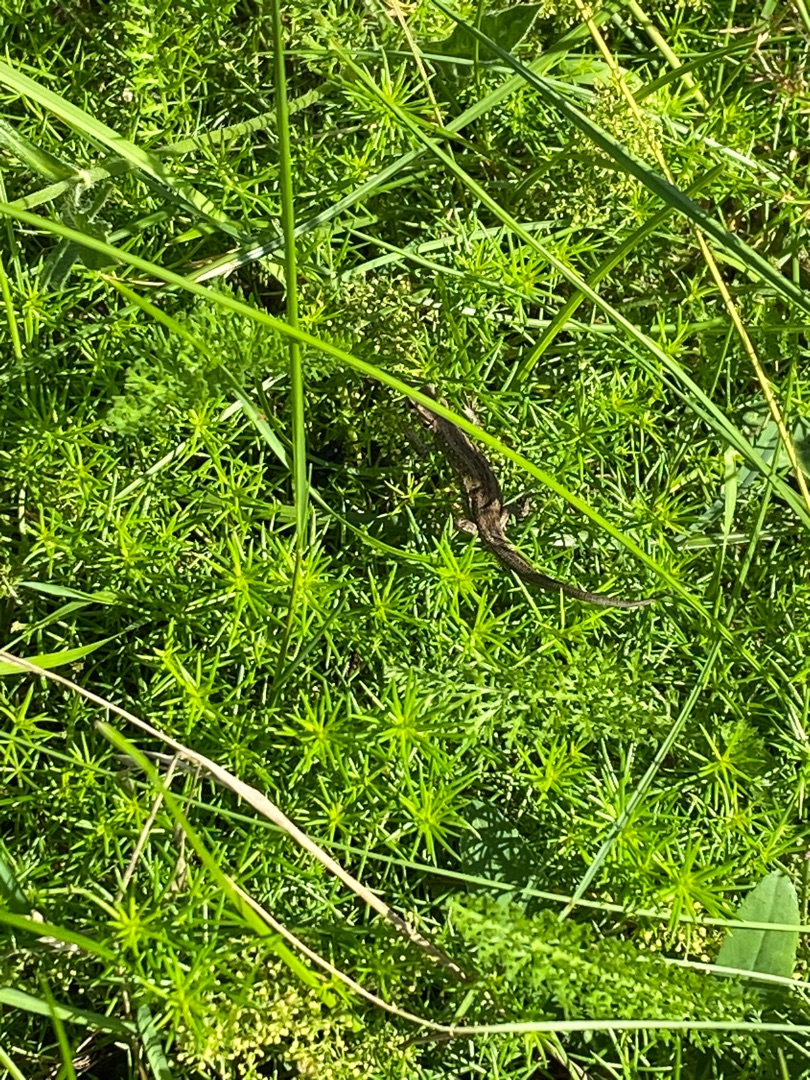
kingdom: Animalia
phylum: Chordata
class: Squamata
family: Lacertidae
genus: Lacerta
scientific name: Lacerta agilis
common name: Markfirben
